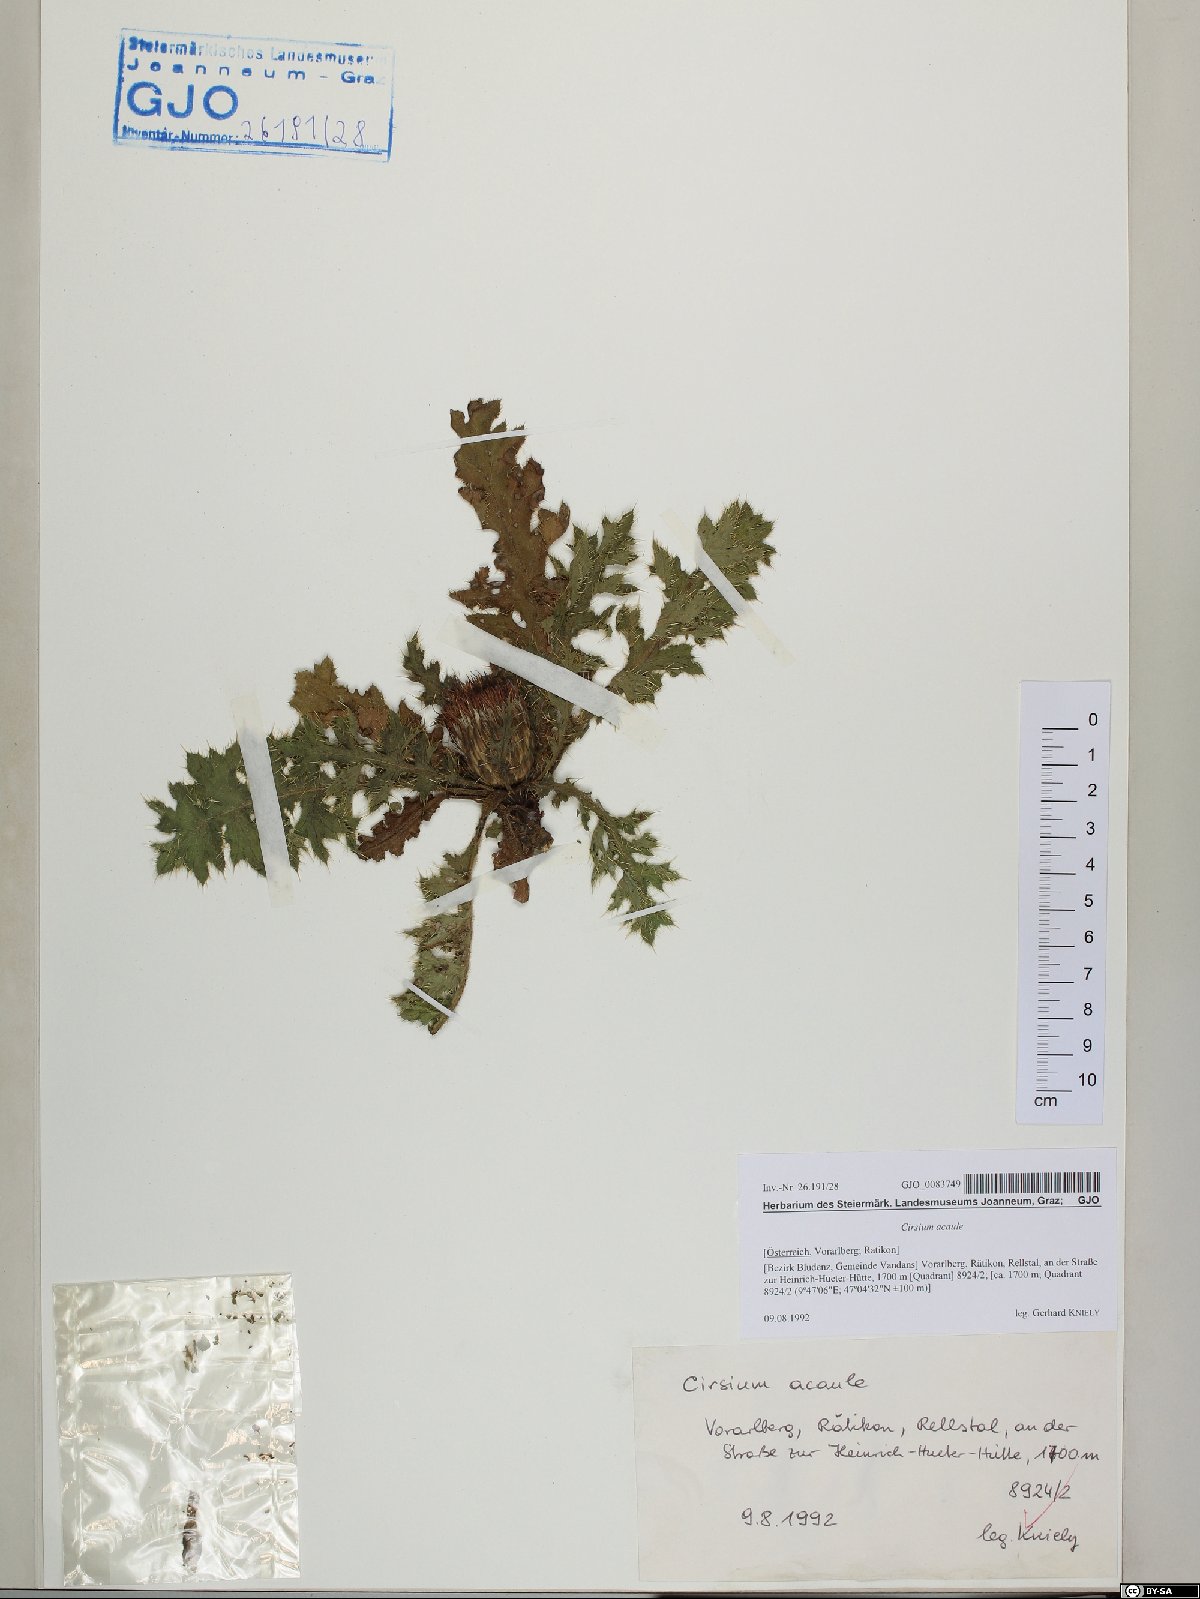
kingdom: Plantae
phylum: Tracheophyta
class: Magnoliopsida
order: Asterales
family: Asteraceae
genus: Cirsium
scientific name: Cirsium acaulon
